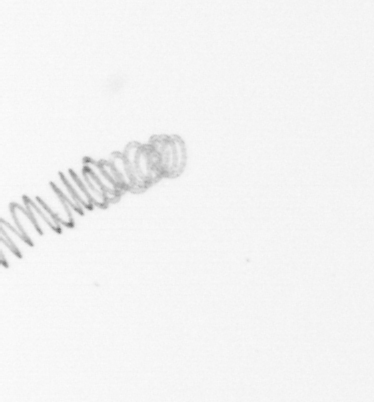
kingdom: Chromista
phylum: Ochrophyta
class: Bacillariophyceae
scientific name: Bacillariophyceae
